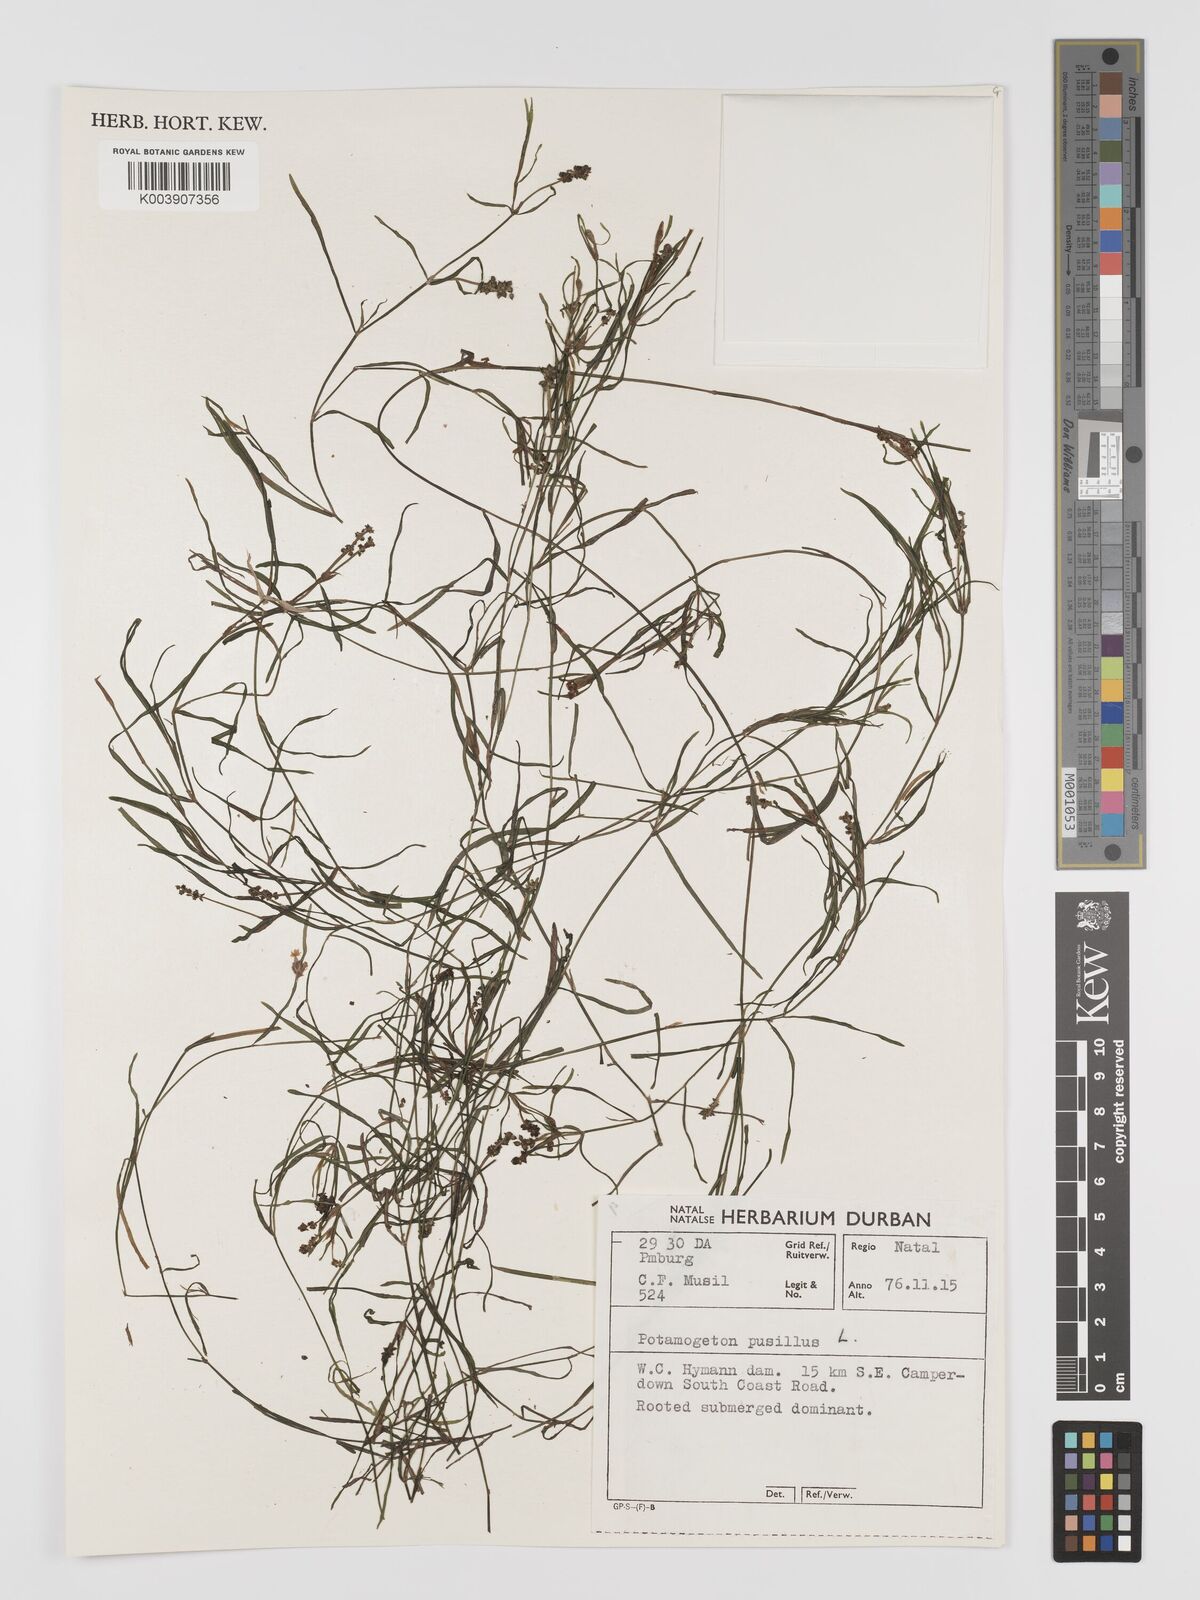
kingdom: Plantae
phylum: Tracheophyta
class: Liliopsida
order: Alismatales
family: Potamogetonaceae
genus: Potamogeton
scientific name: Potamogeton pusillus
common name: Lesser pondweed
